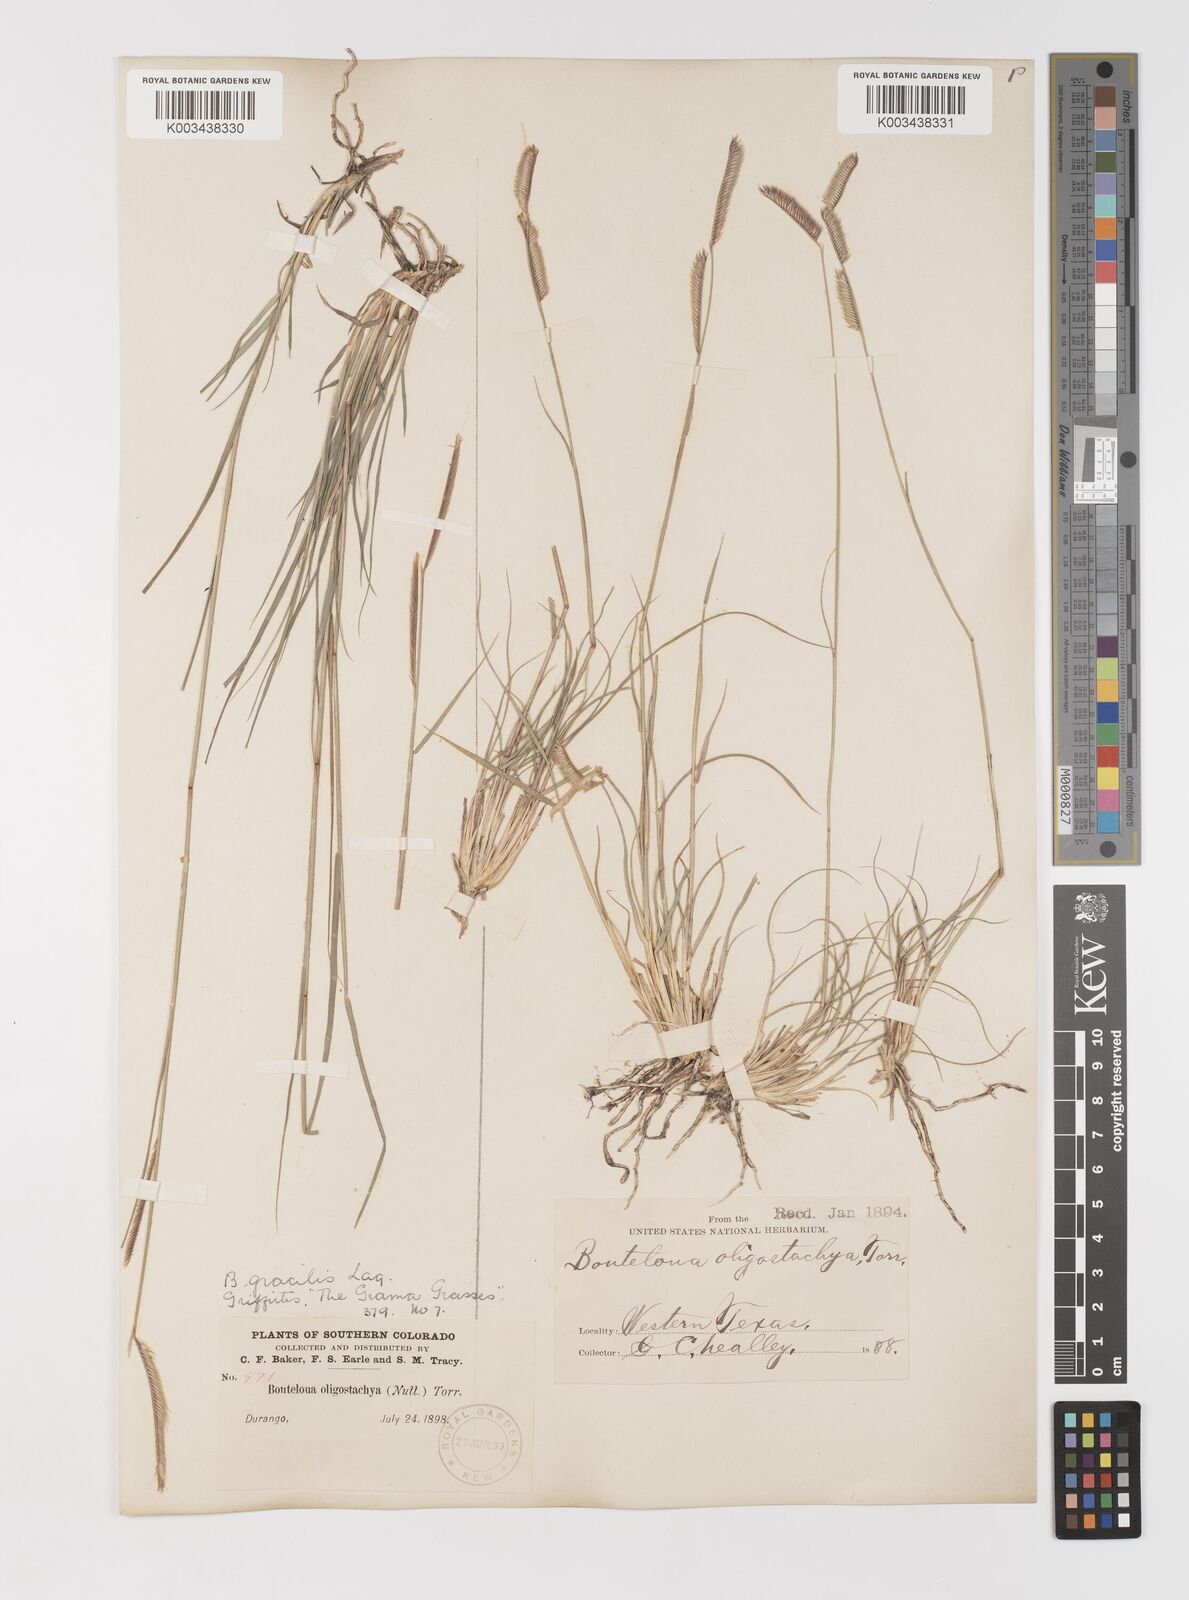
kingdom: Plantae
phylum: Tracheophyta
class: Liliopsida
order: Poales
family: Poaceae
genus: Bouteloua
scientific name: Bouteloua
